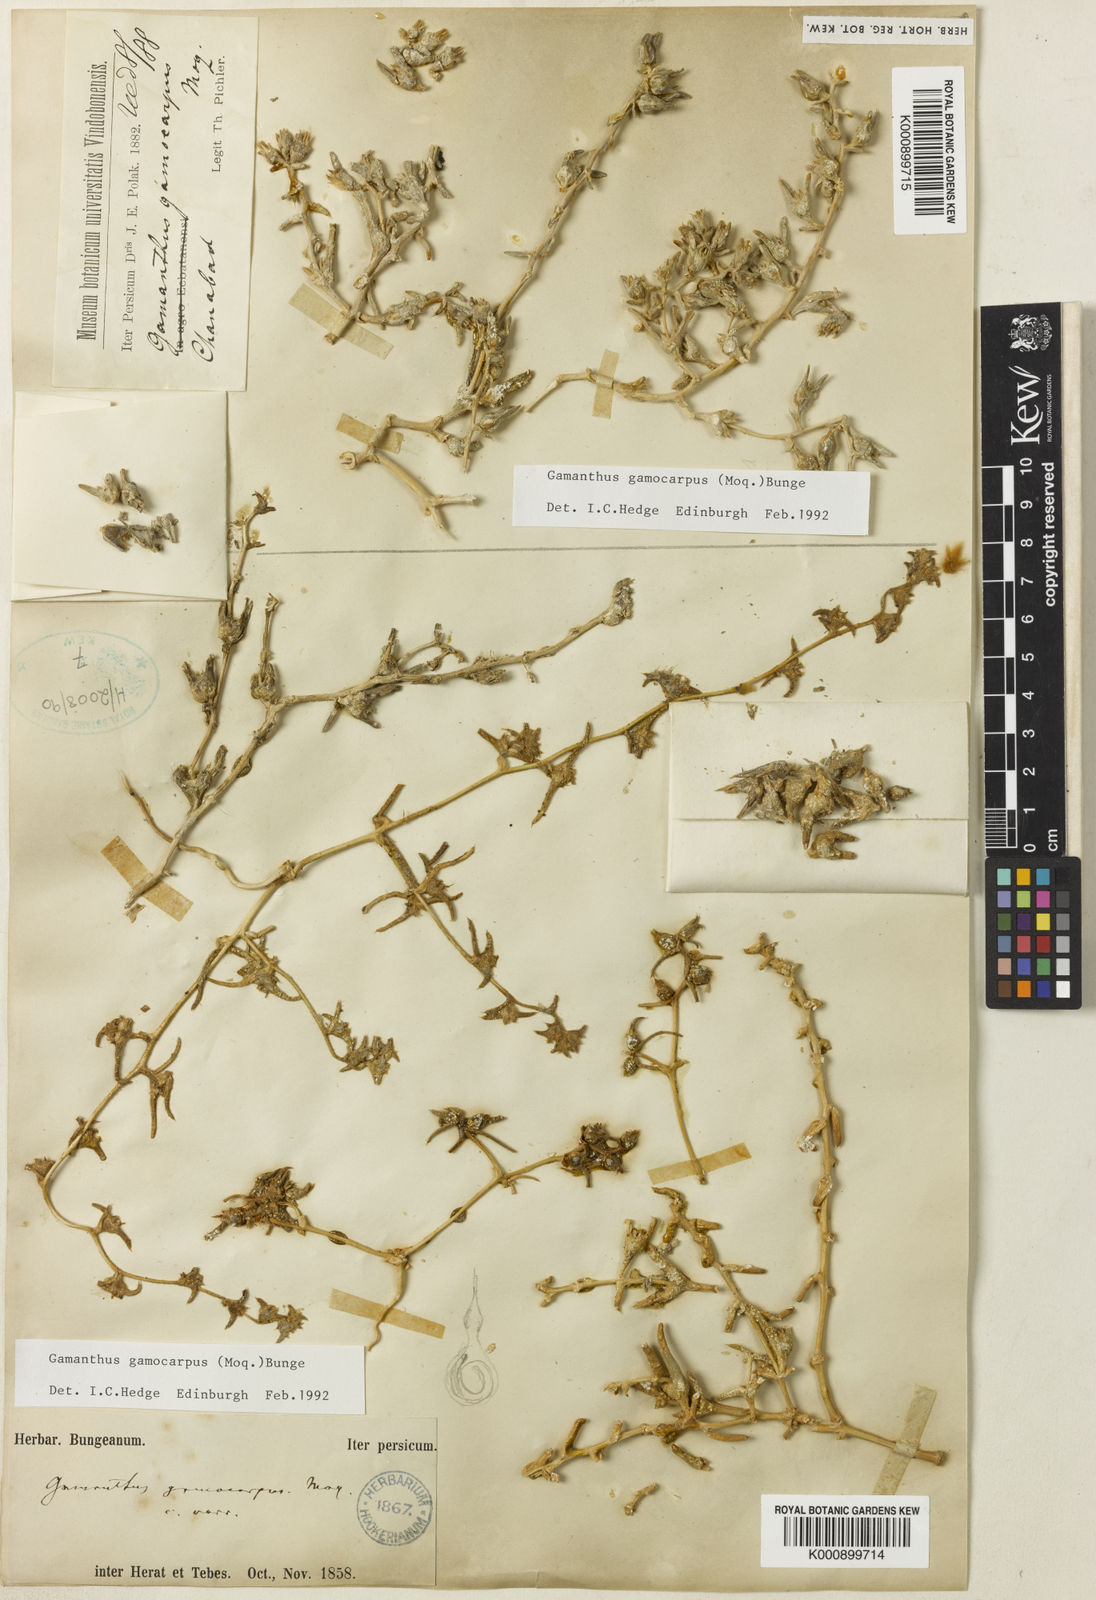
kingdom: Plantae
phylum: Tracheophyta
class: Magnoliopsida
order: Caryophyllales
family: Amaranthaceae
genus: Halimocnemis
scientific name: Halimocnemis
